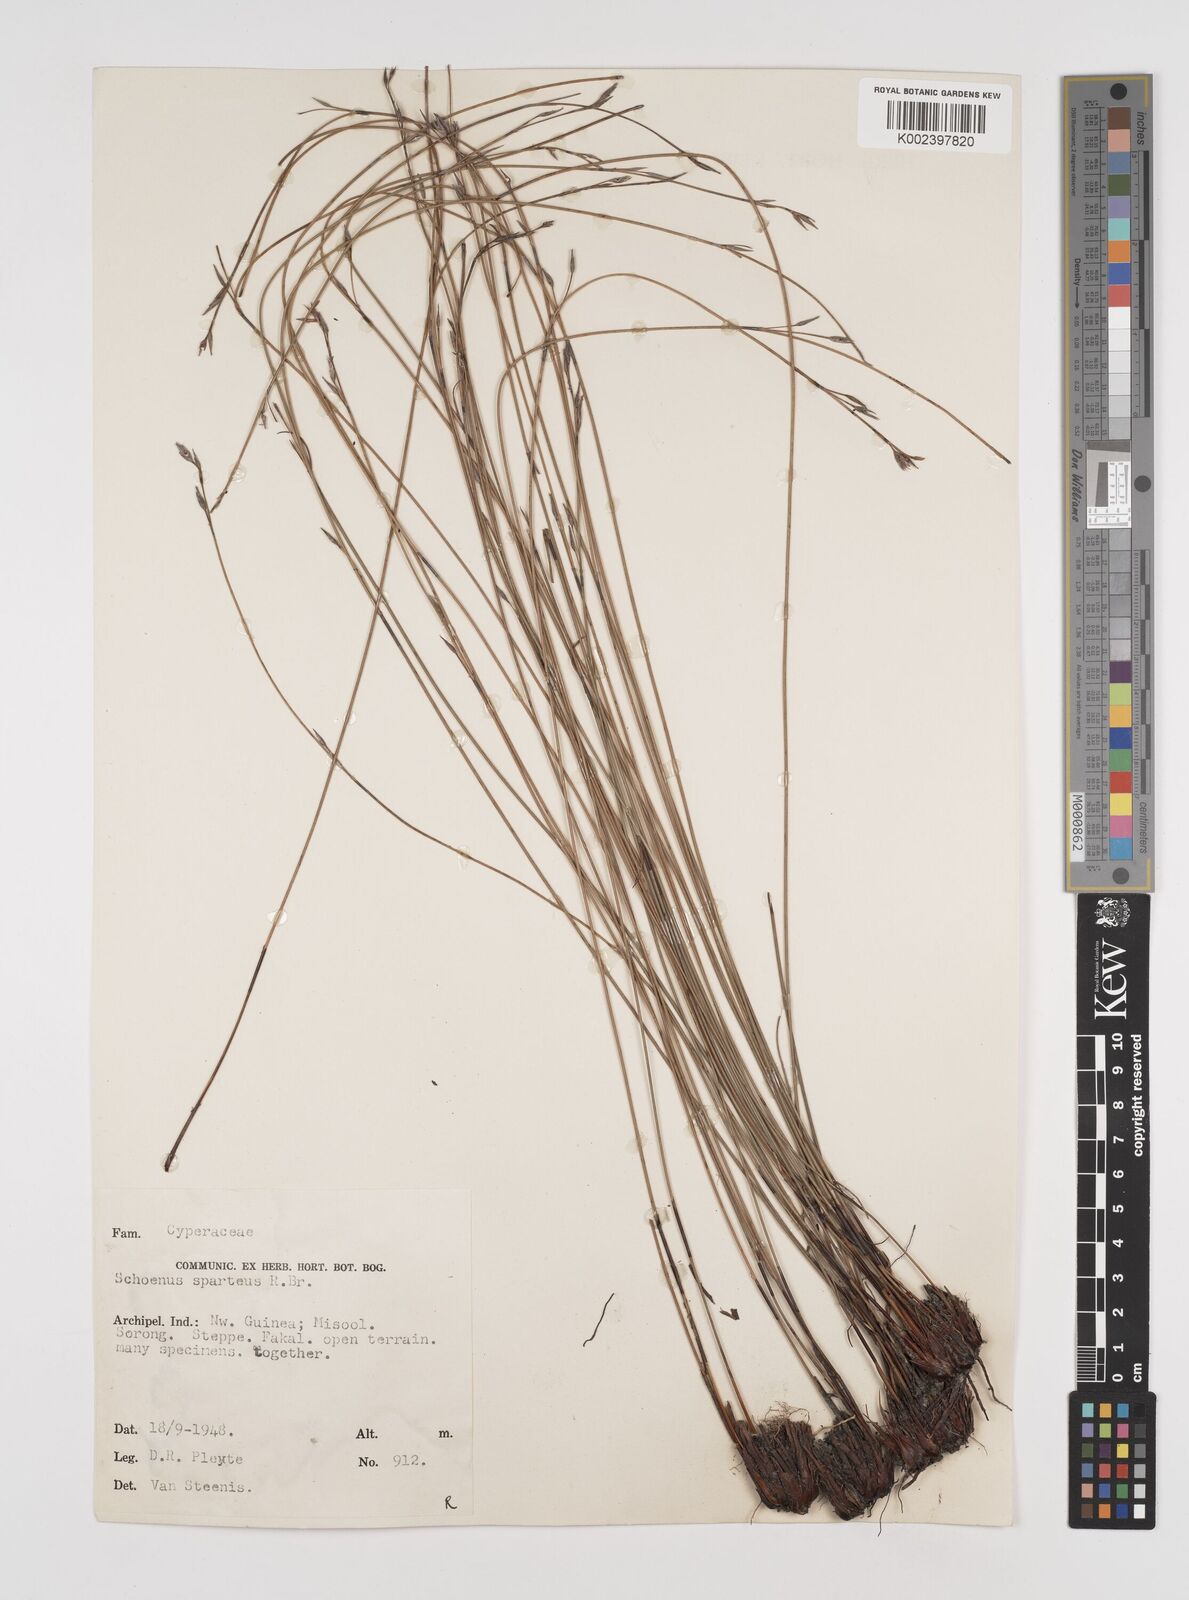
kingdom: Plantae
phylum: Tracheophyta
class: Liliopsida
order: Poales
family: Cyperaceae
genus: Schoenus
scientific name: Schoenus sparteus
